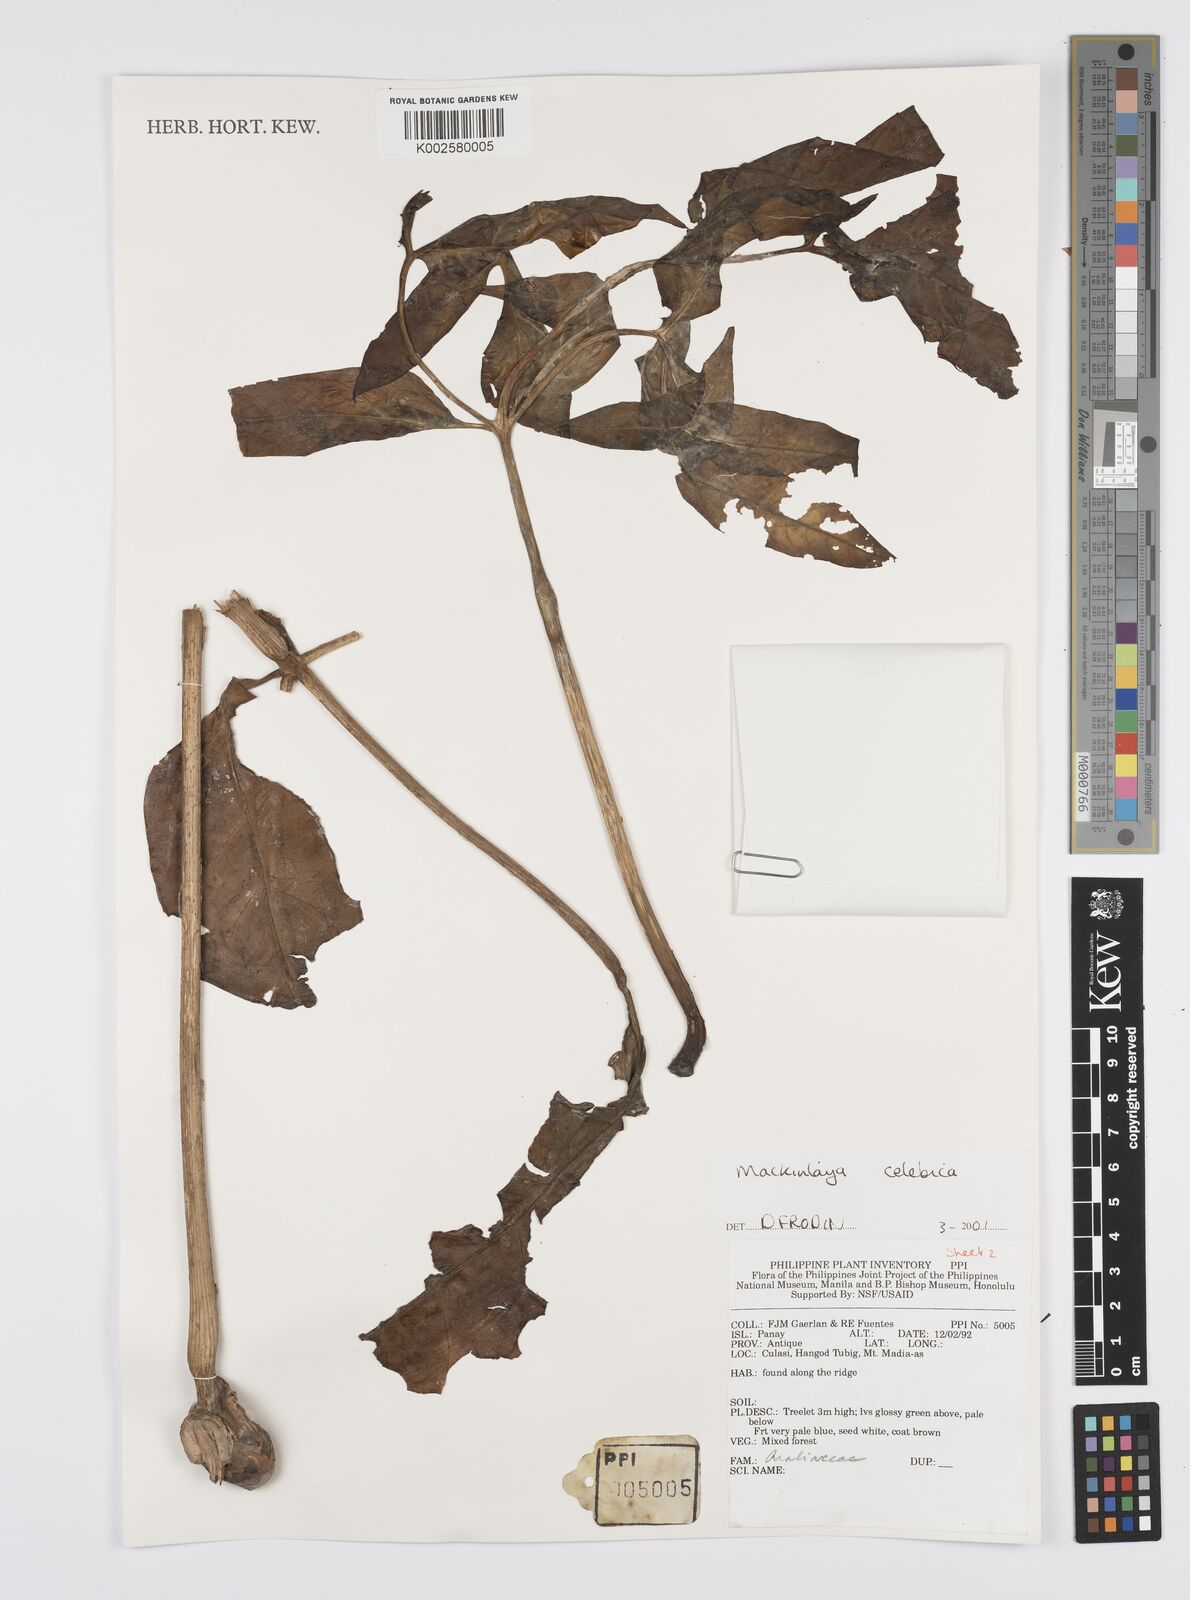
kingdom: Plantae
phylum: Tracheophyta
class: Magnoliopsida
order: Apiales
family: Apiaceae
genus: Mackinlaya
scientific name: Mackinlaya celebica
